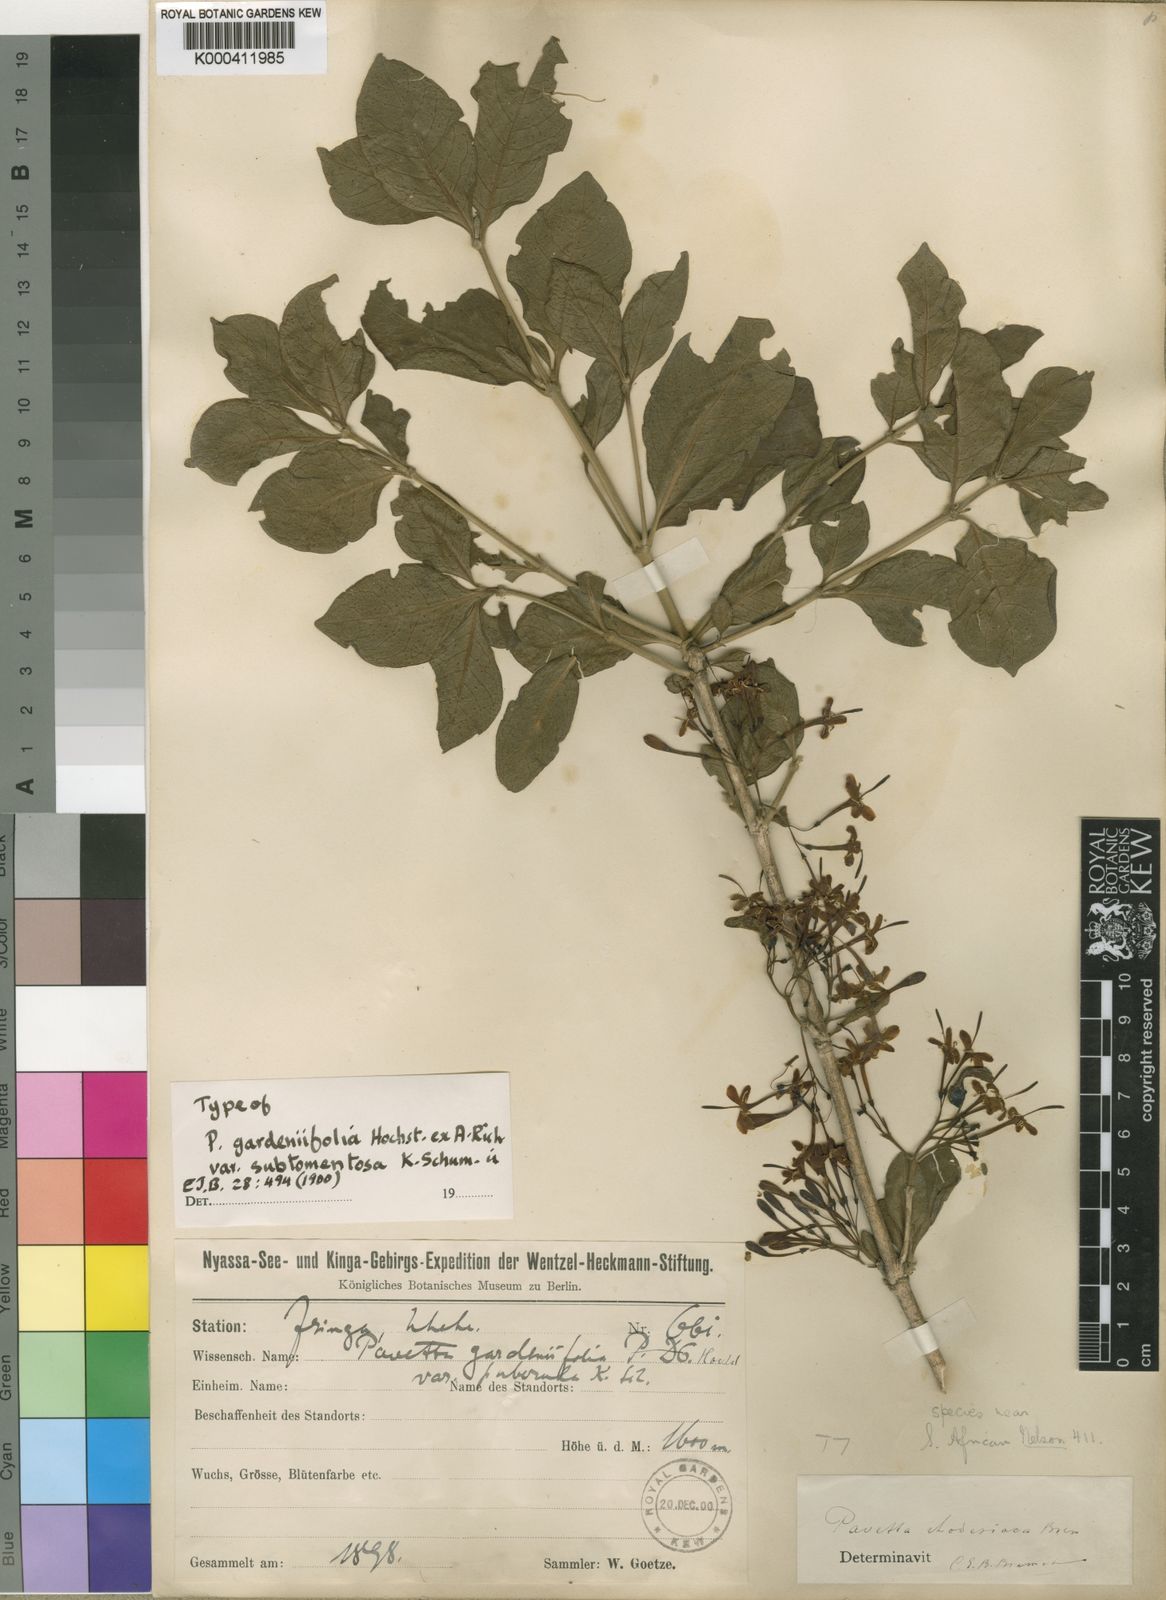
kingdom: Plantae
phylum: Tracheophyta
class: Magnoliopsida
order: Gentianales
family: Rubiaceae
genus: Pavetta
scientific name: Pavetta gardeniifolia
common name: Common brides-bush
